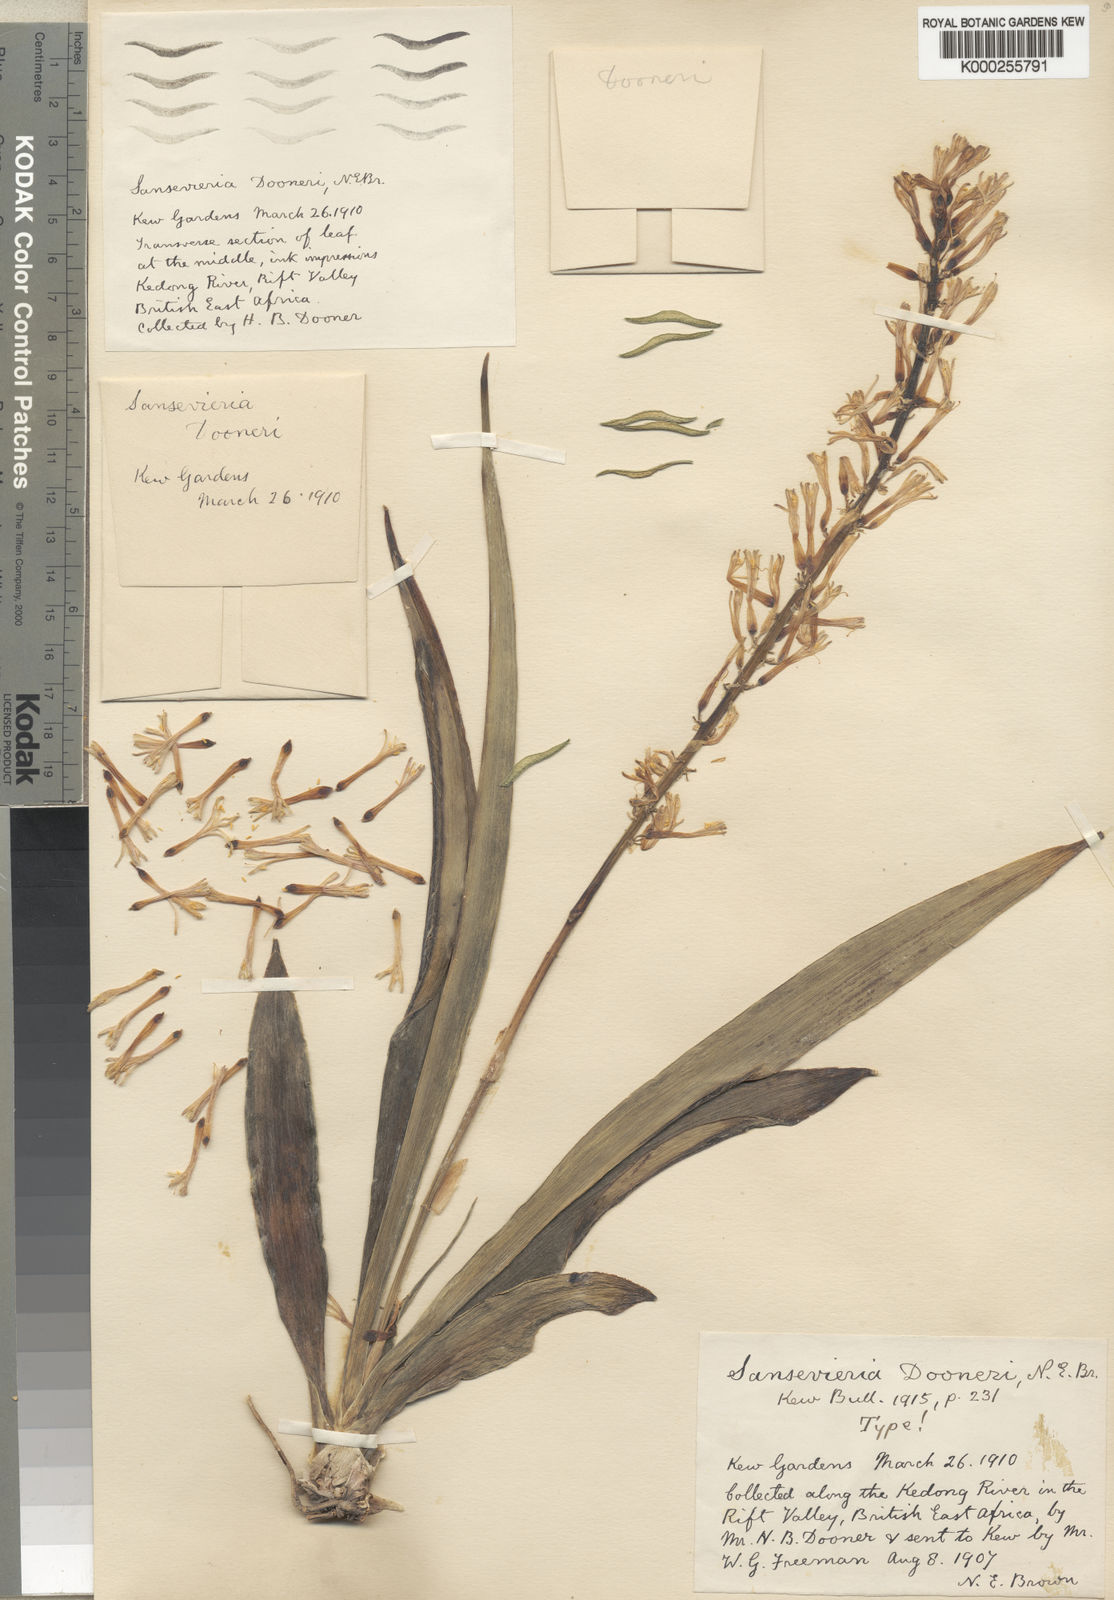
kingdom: Plantae
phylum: Tracheophyta
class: Liliopsida
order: Asparagales
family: Asparagaceae
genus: Dracaena
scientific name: Dracaena parva
